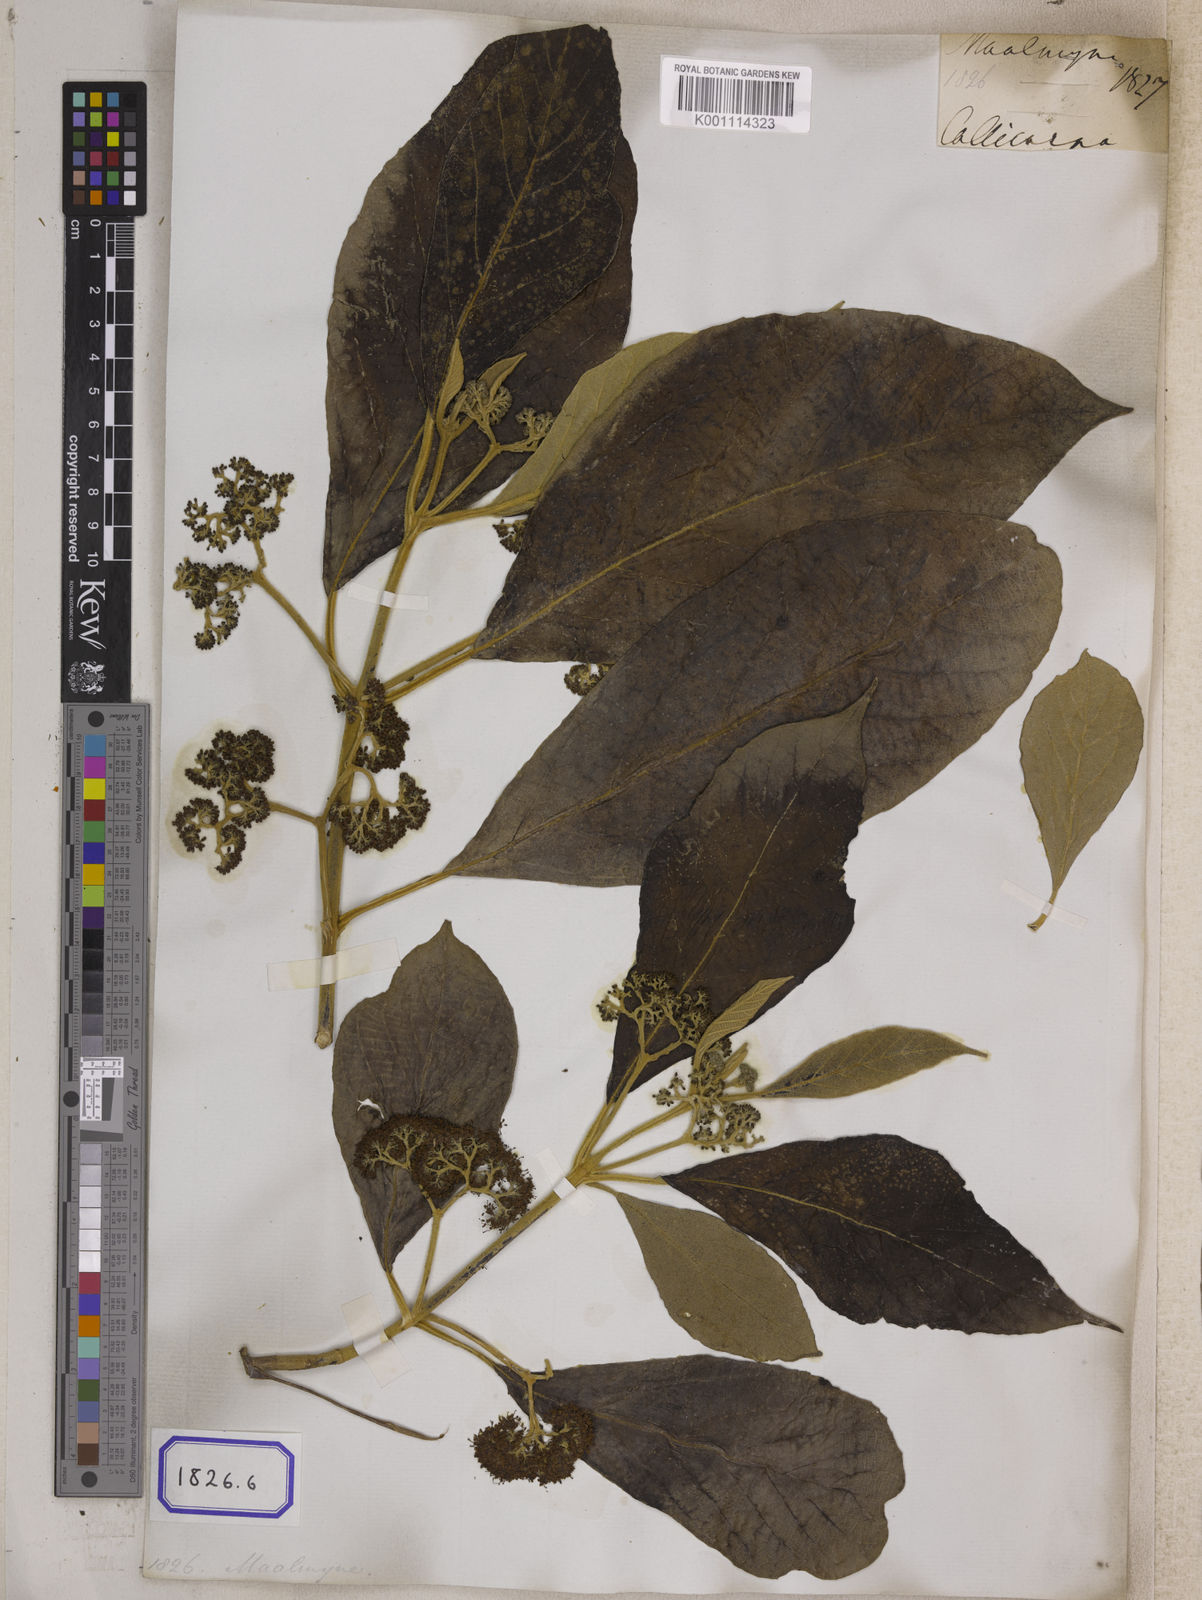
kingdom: Plantae
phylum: Tracheophyta
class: Magnoliopsida
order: Lamiales
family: Lamiaceae
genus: Callicarpa
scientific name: Callicarpa arborea
